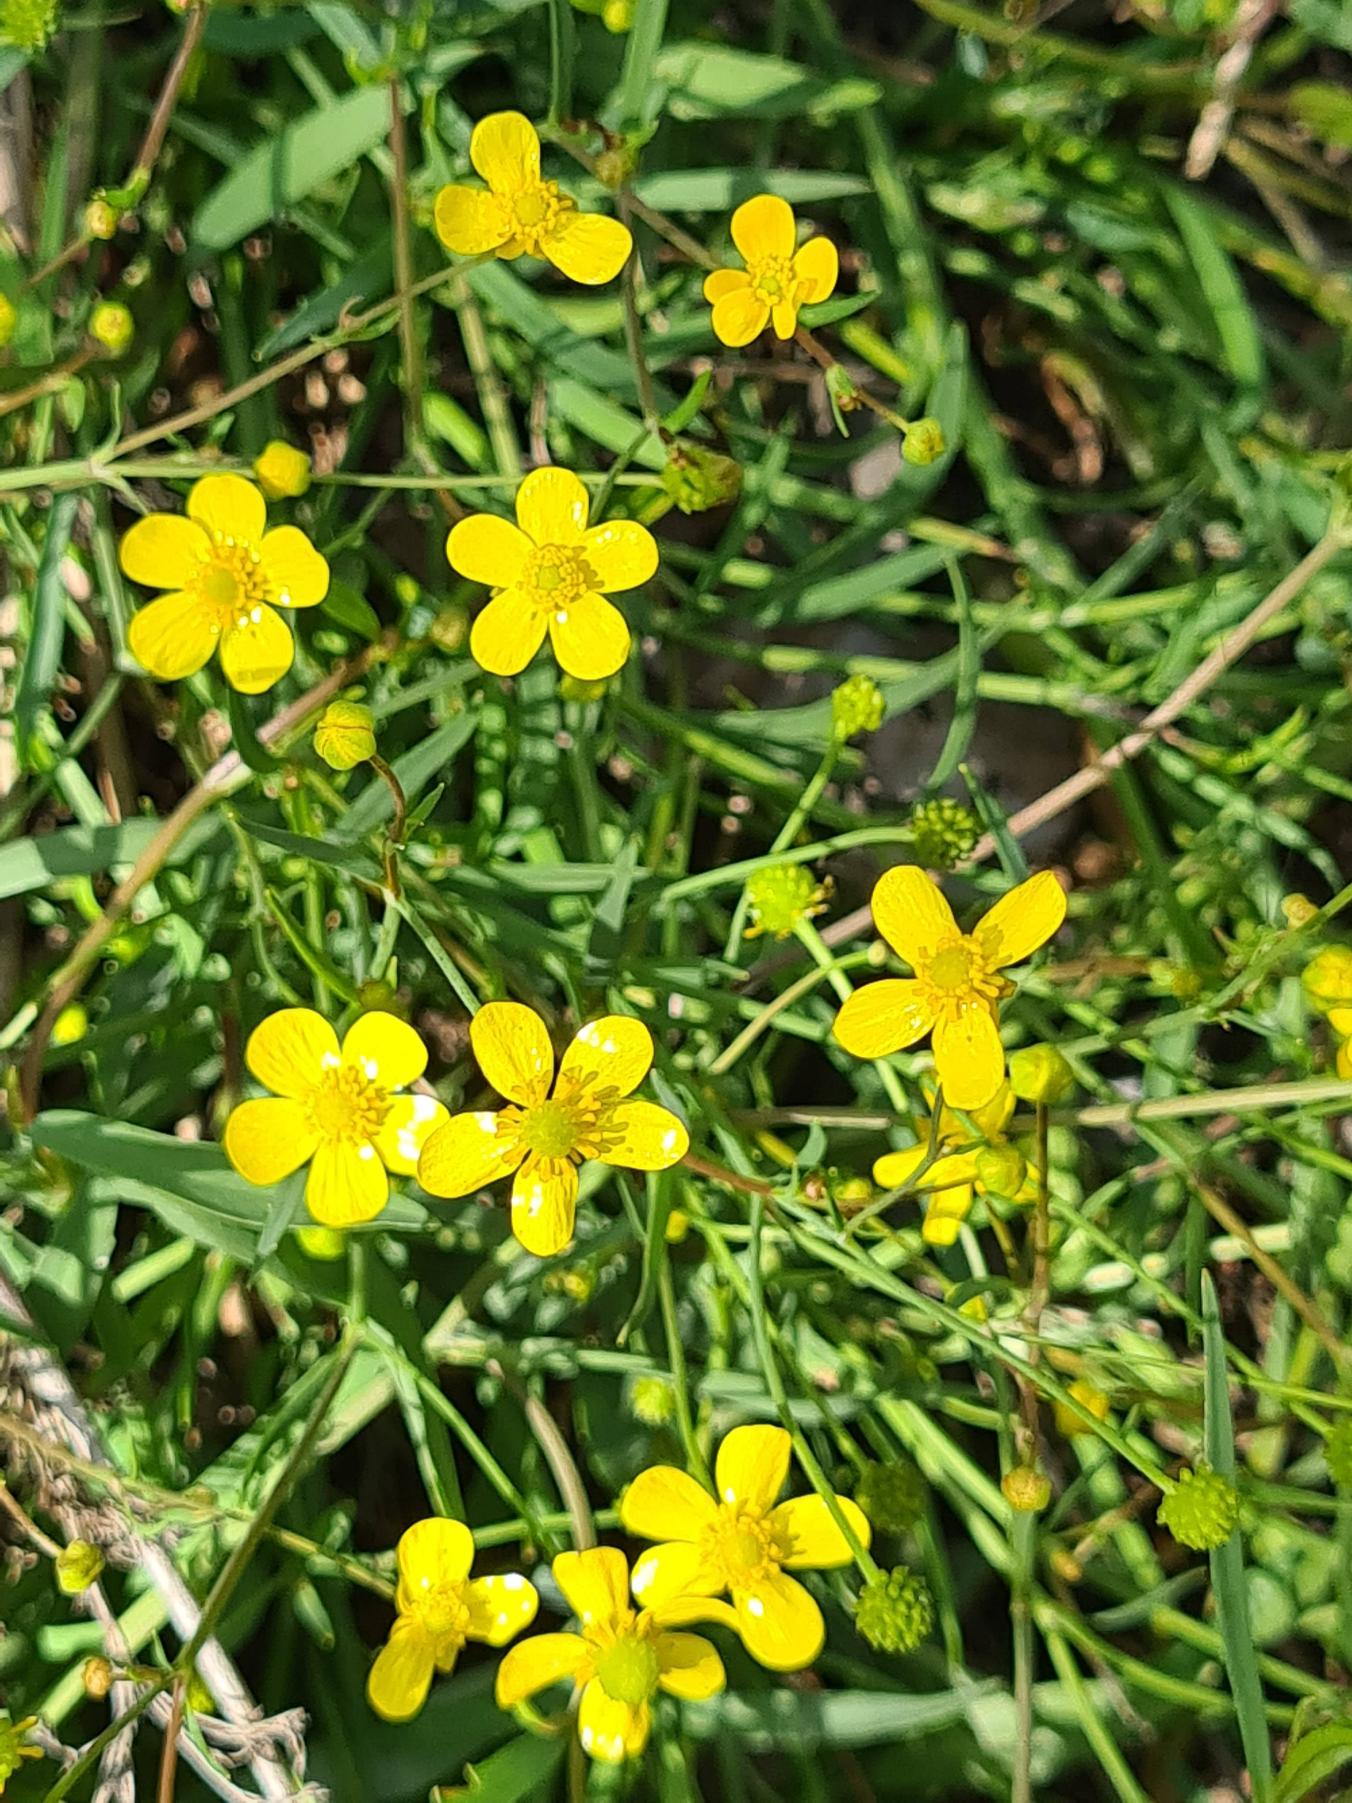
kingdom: Plantae
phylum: Tracheophyta
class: Magnoliopsida
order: Ranunculales
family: Ranunculaceae
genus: Ranunculus
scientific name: Ranunculus flammula
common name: Kær-ranunkel
